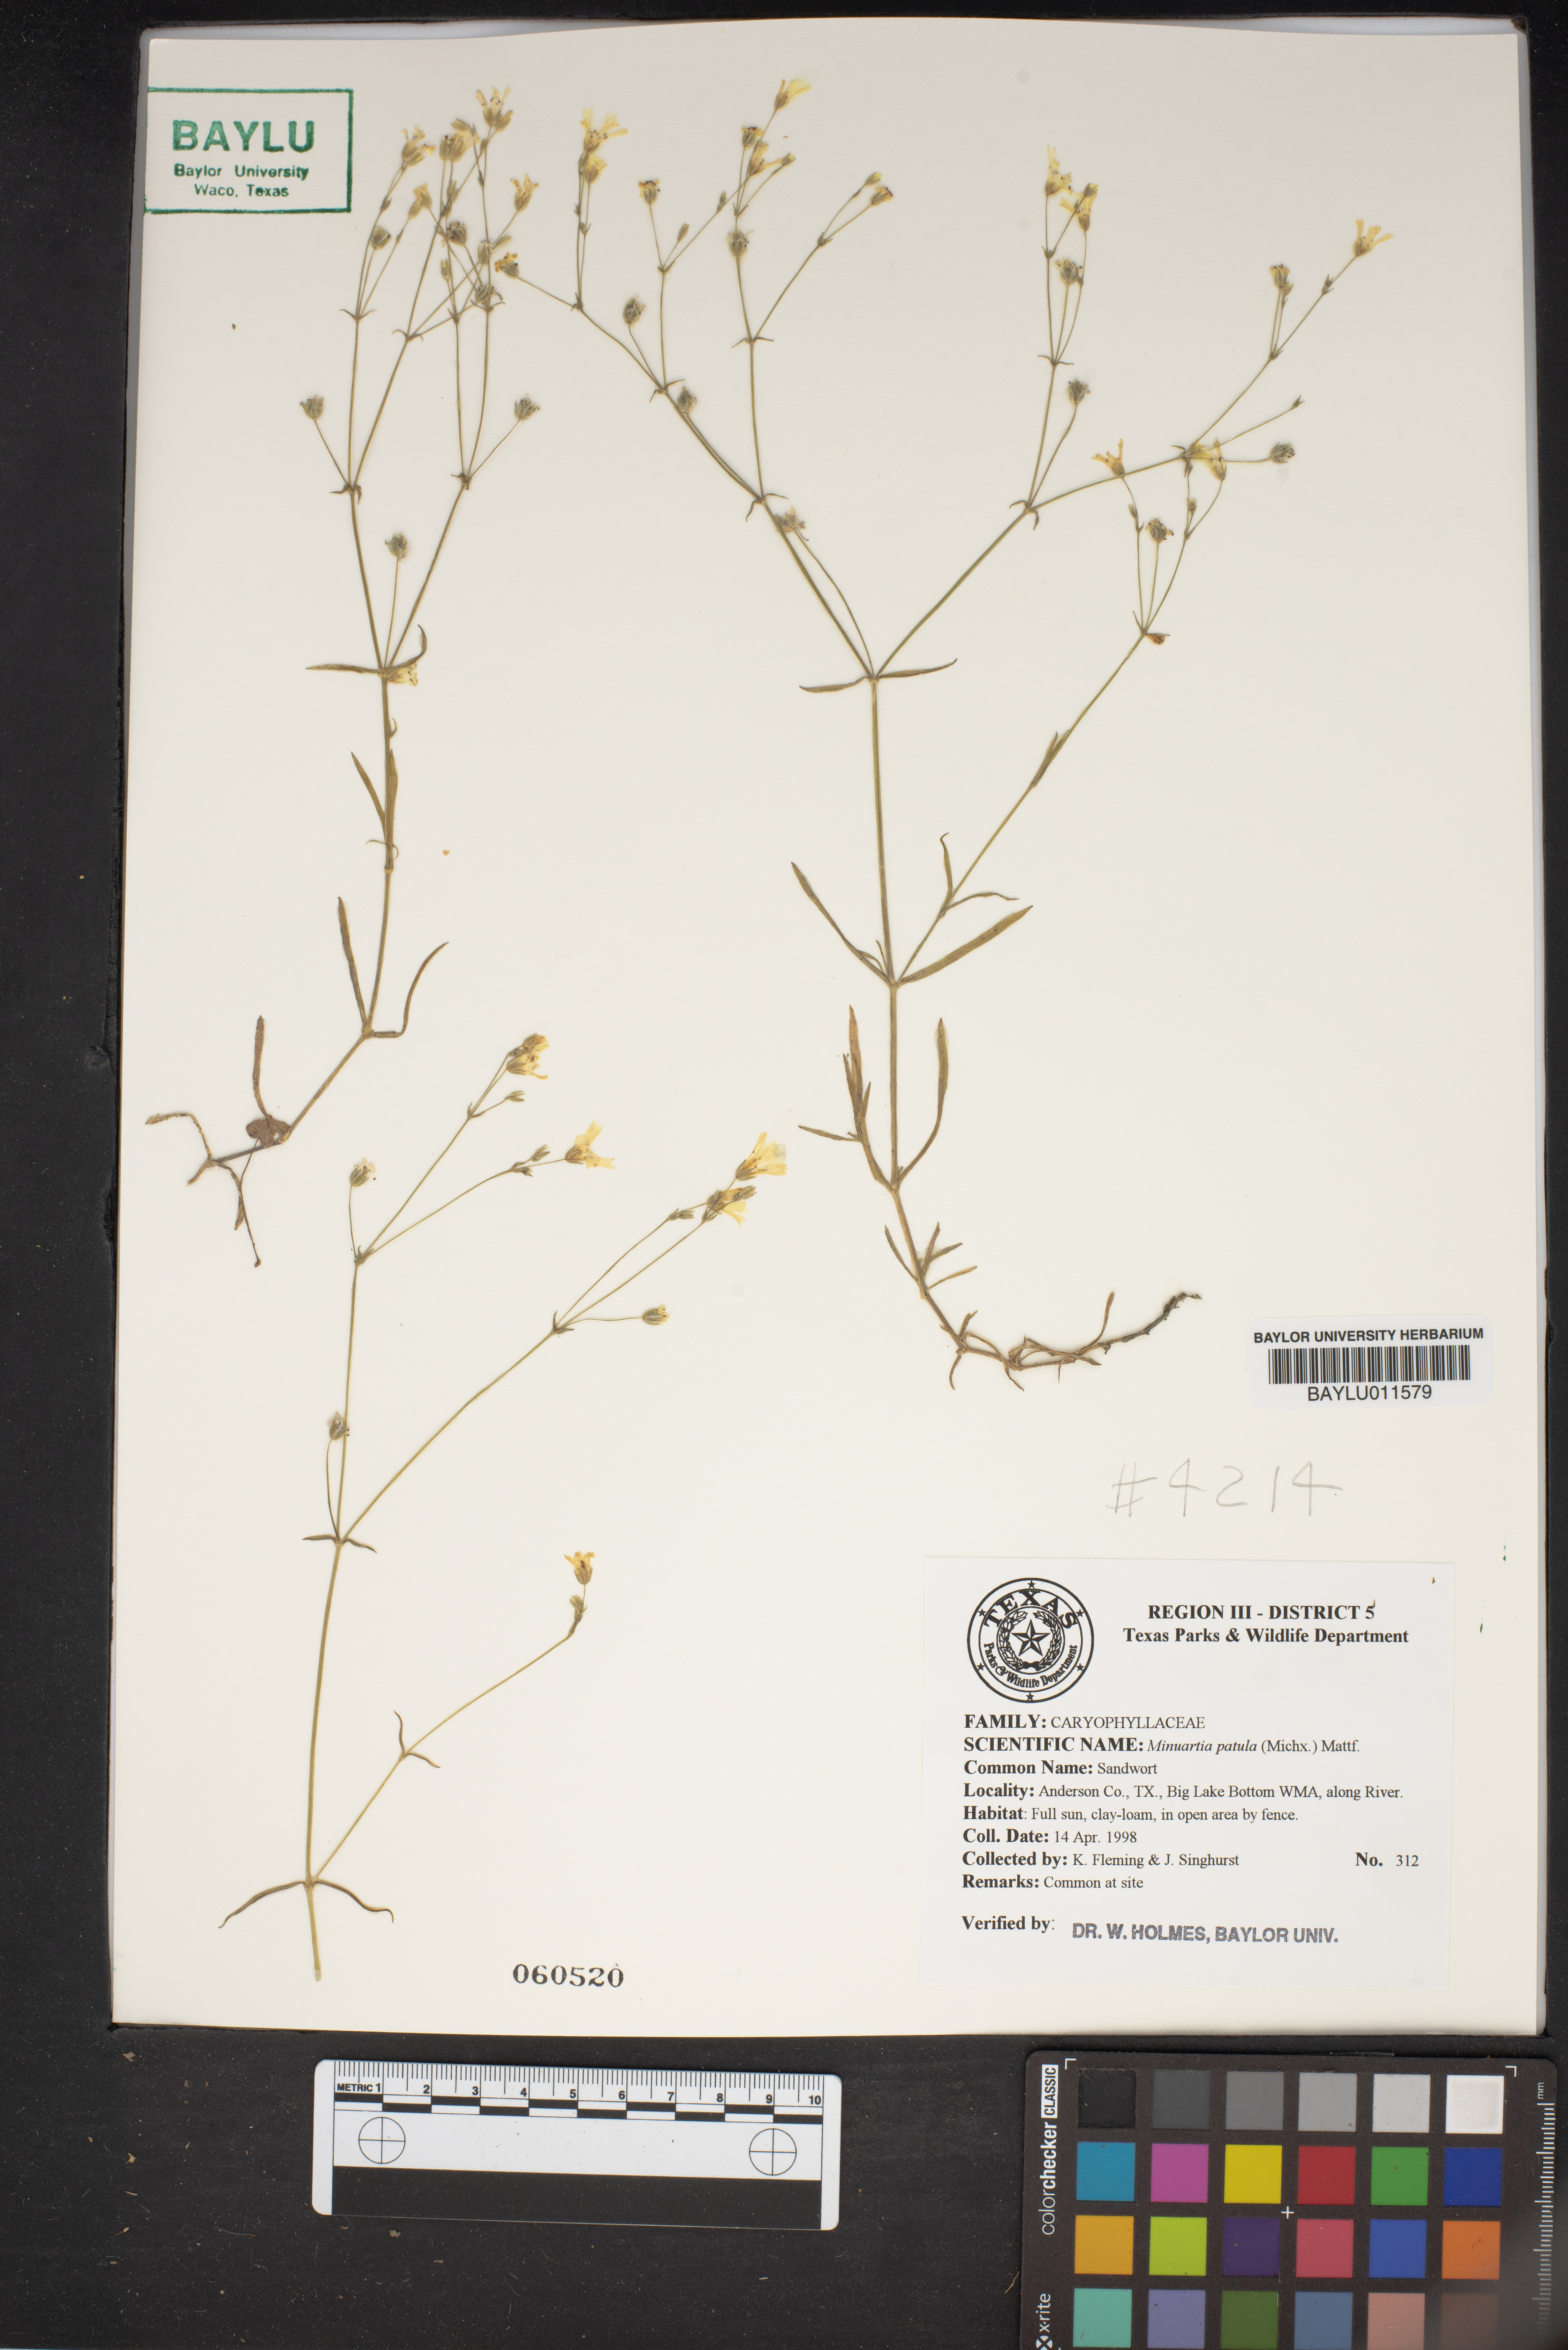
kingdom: Plantae
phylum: Tracheophyta
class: Magnoliopsida
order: Caryophyllales
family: Caryophyllaceae
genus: Mononeuria
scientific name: Mononeuria patula
